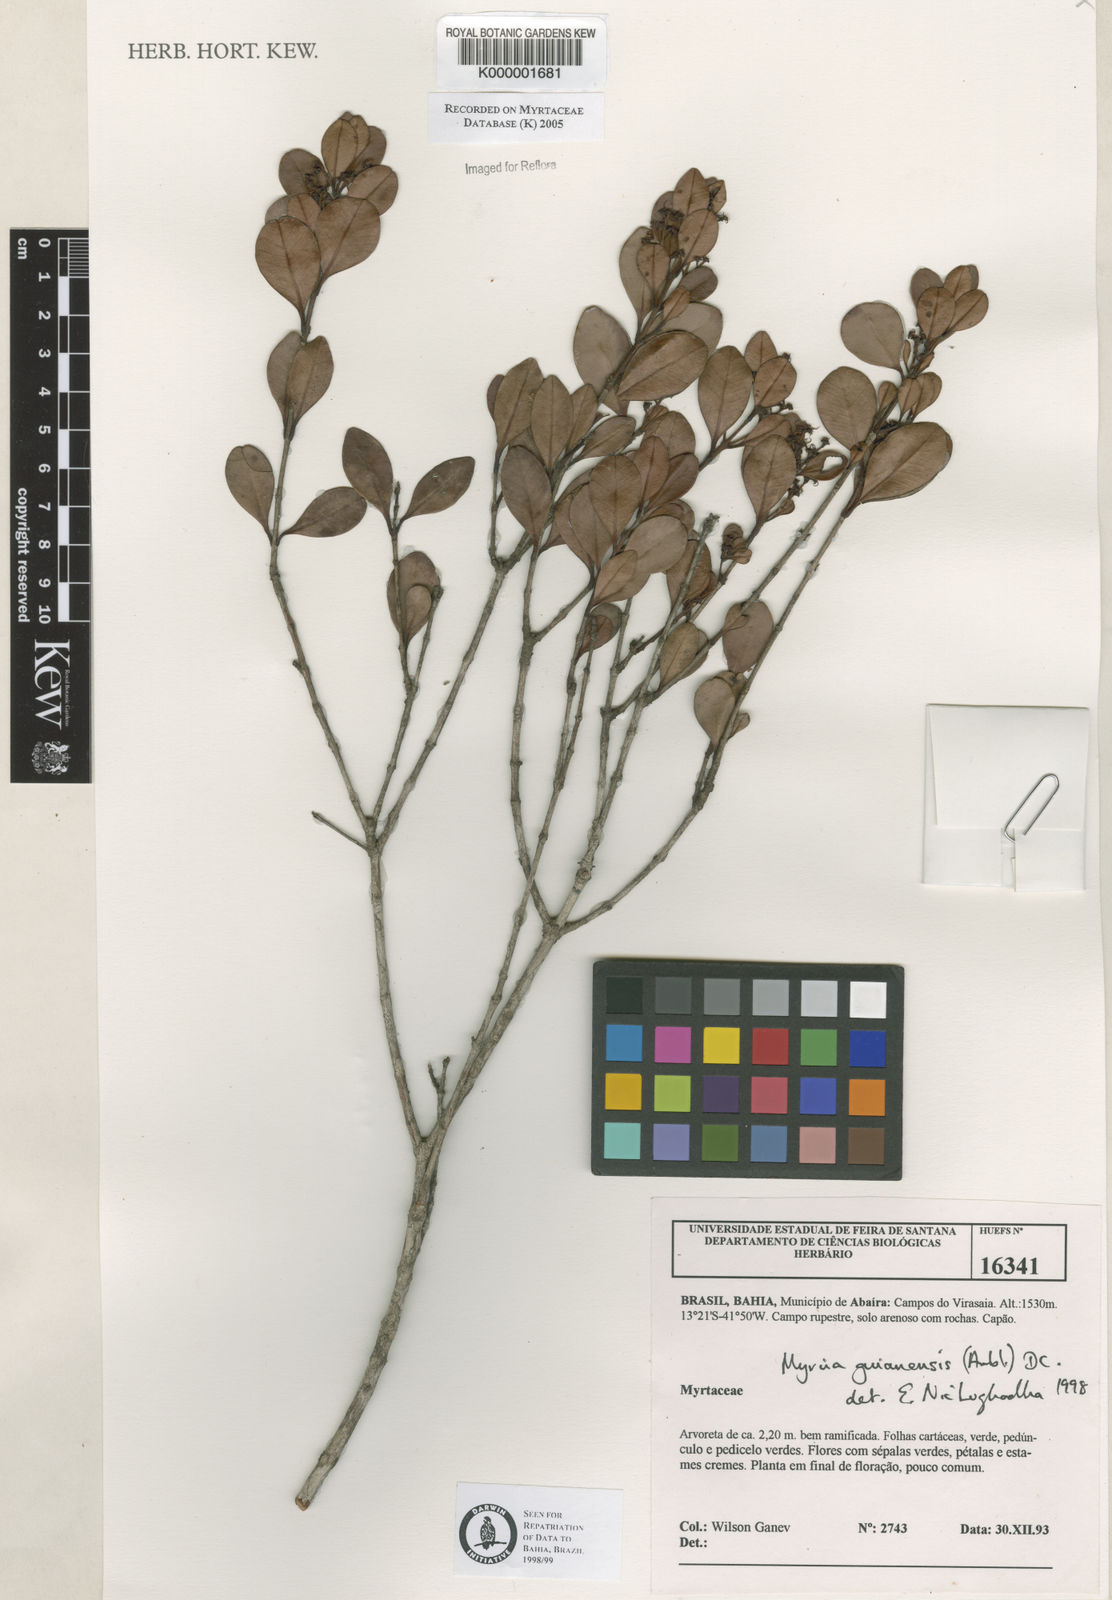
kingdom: Plantae
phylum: Tracheophyta
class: Magnoliopsida
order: Myrtales
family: Myrtaceae
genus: Myrcia
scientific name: Myrcia guianensis
